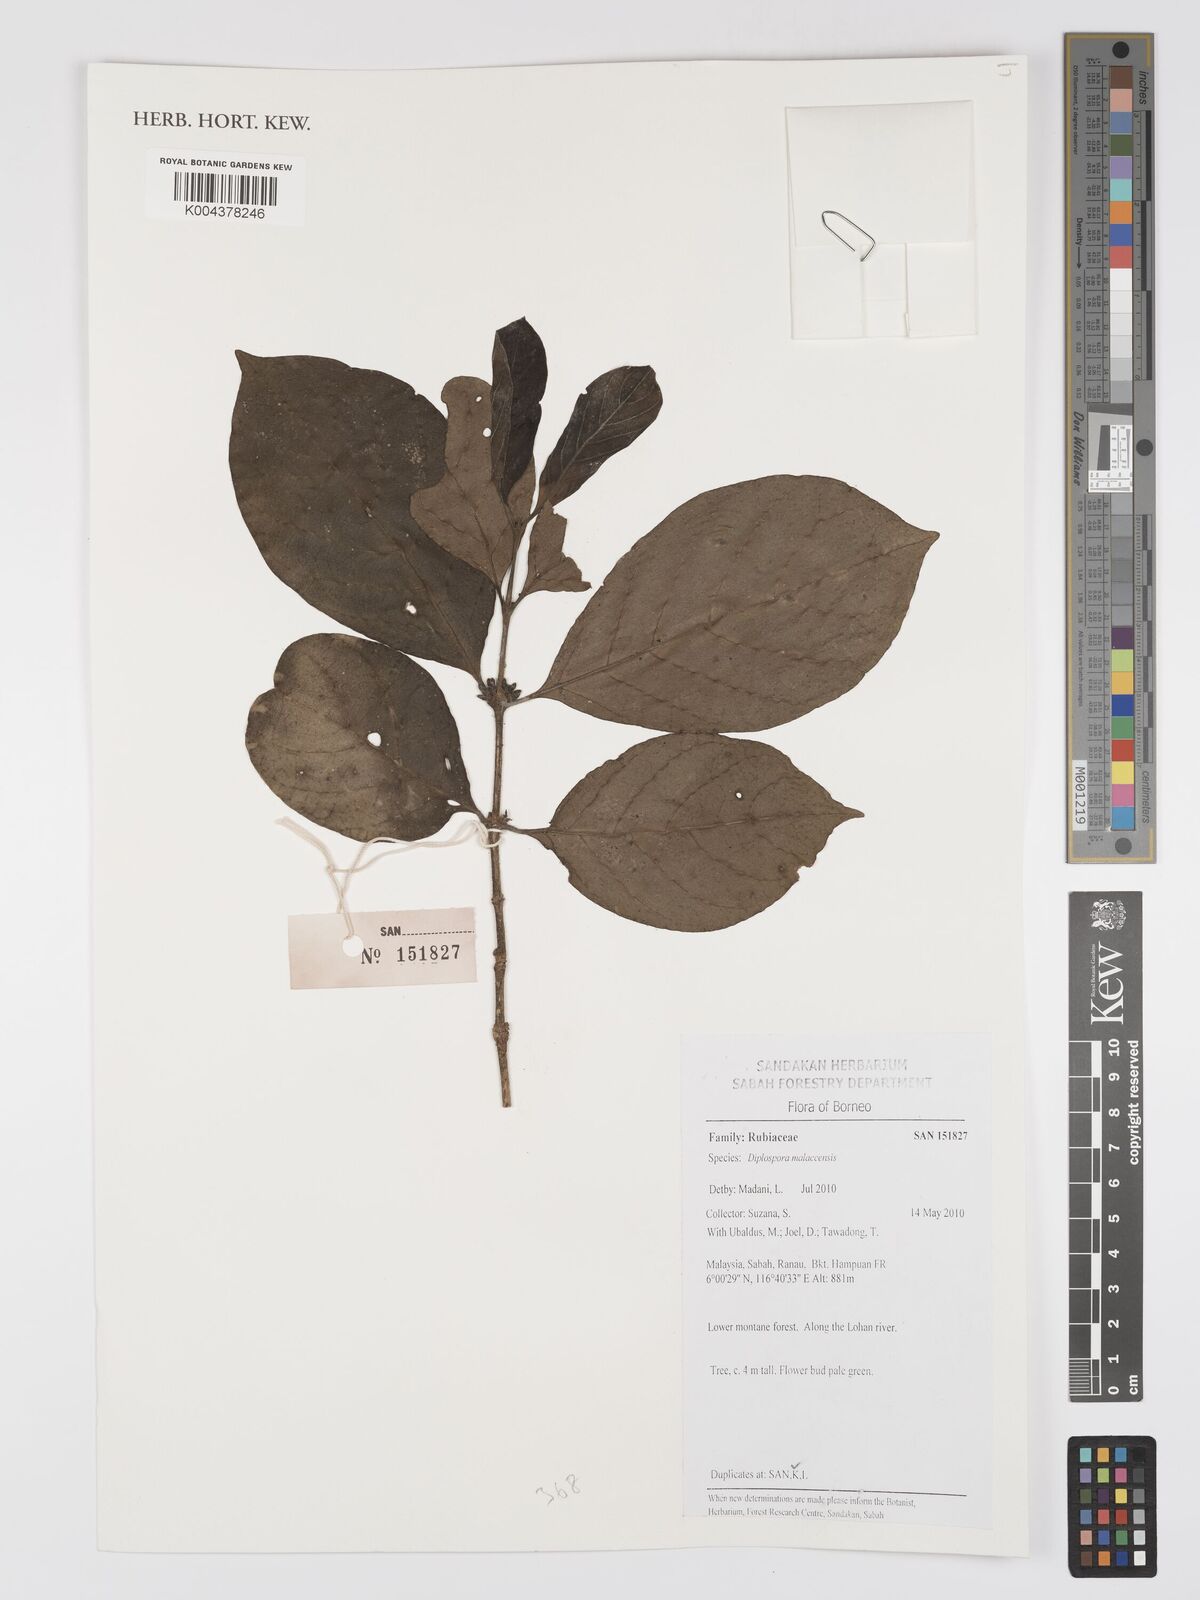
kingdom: Plantae
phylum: Tracheophyta
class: Magnoliopsida
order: Gentianales
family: Rubiaceae
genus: Discospermum
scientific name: Discospermum malaccense
